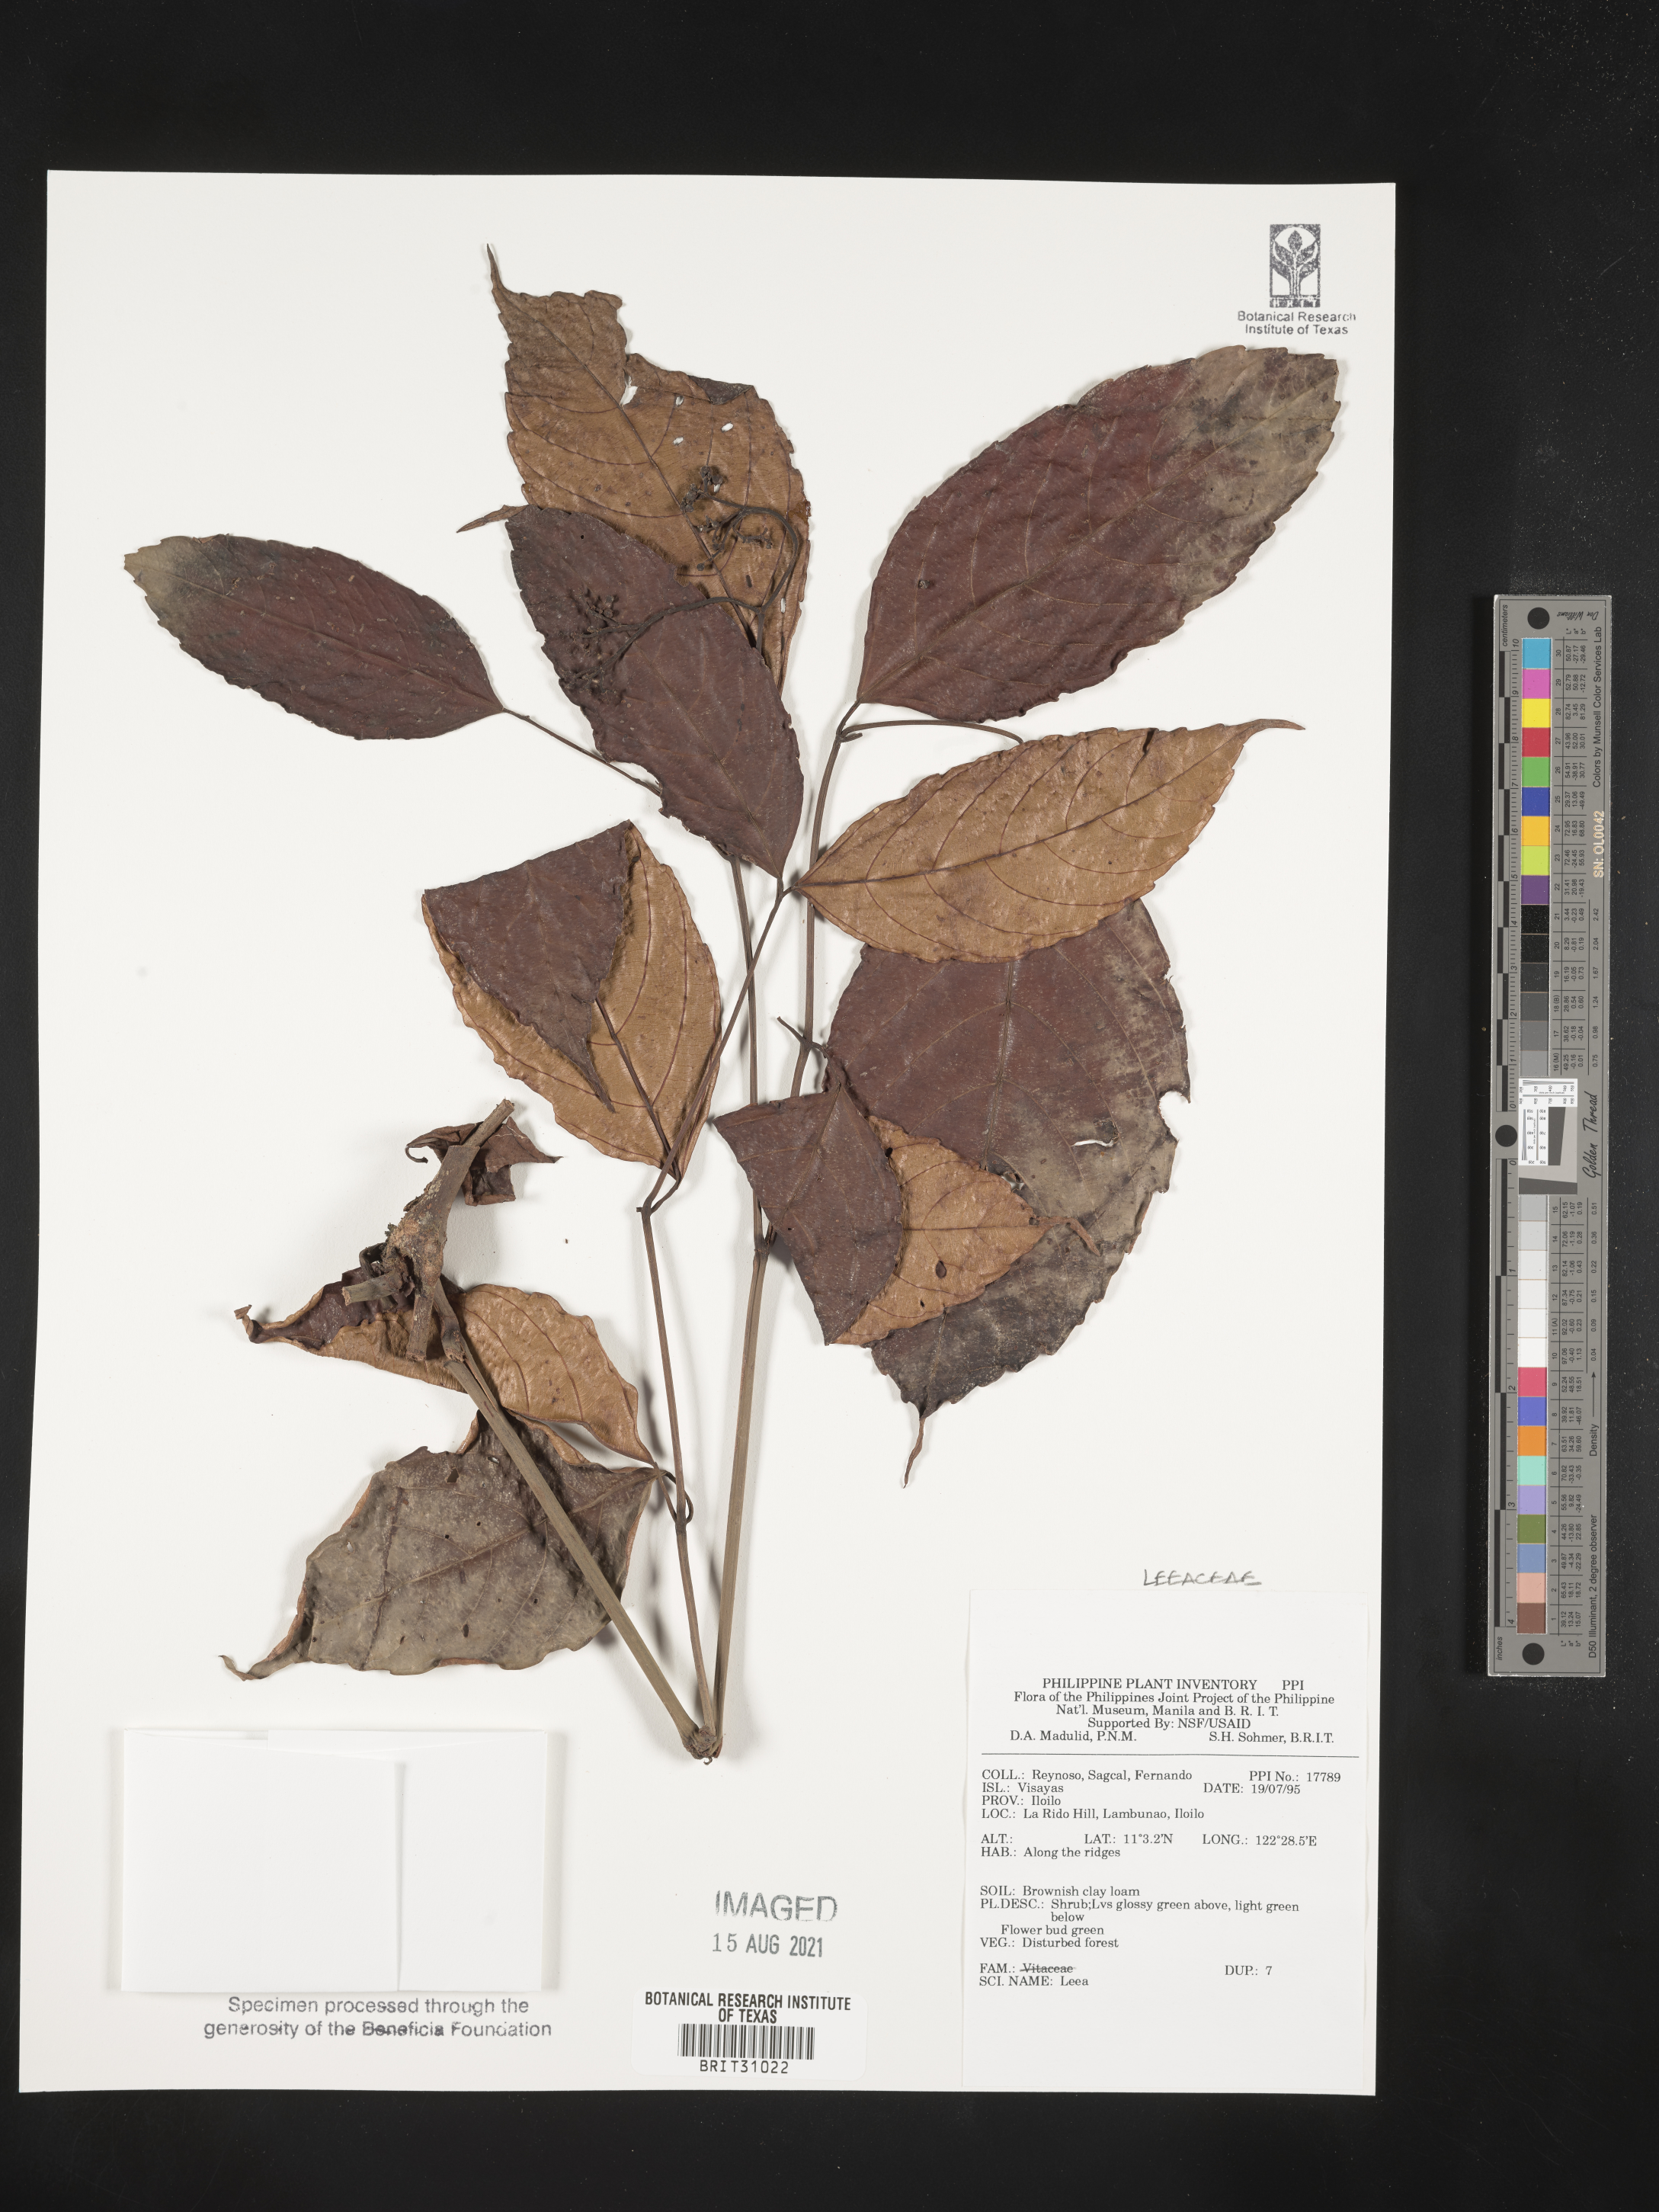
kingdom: Plantae
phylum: Tracheophyta
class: Magnoliopsida
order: Vitales
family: Vitaceae
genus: Leea
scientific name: Leea
